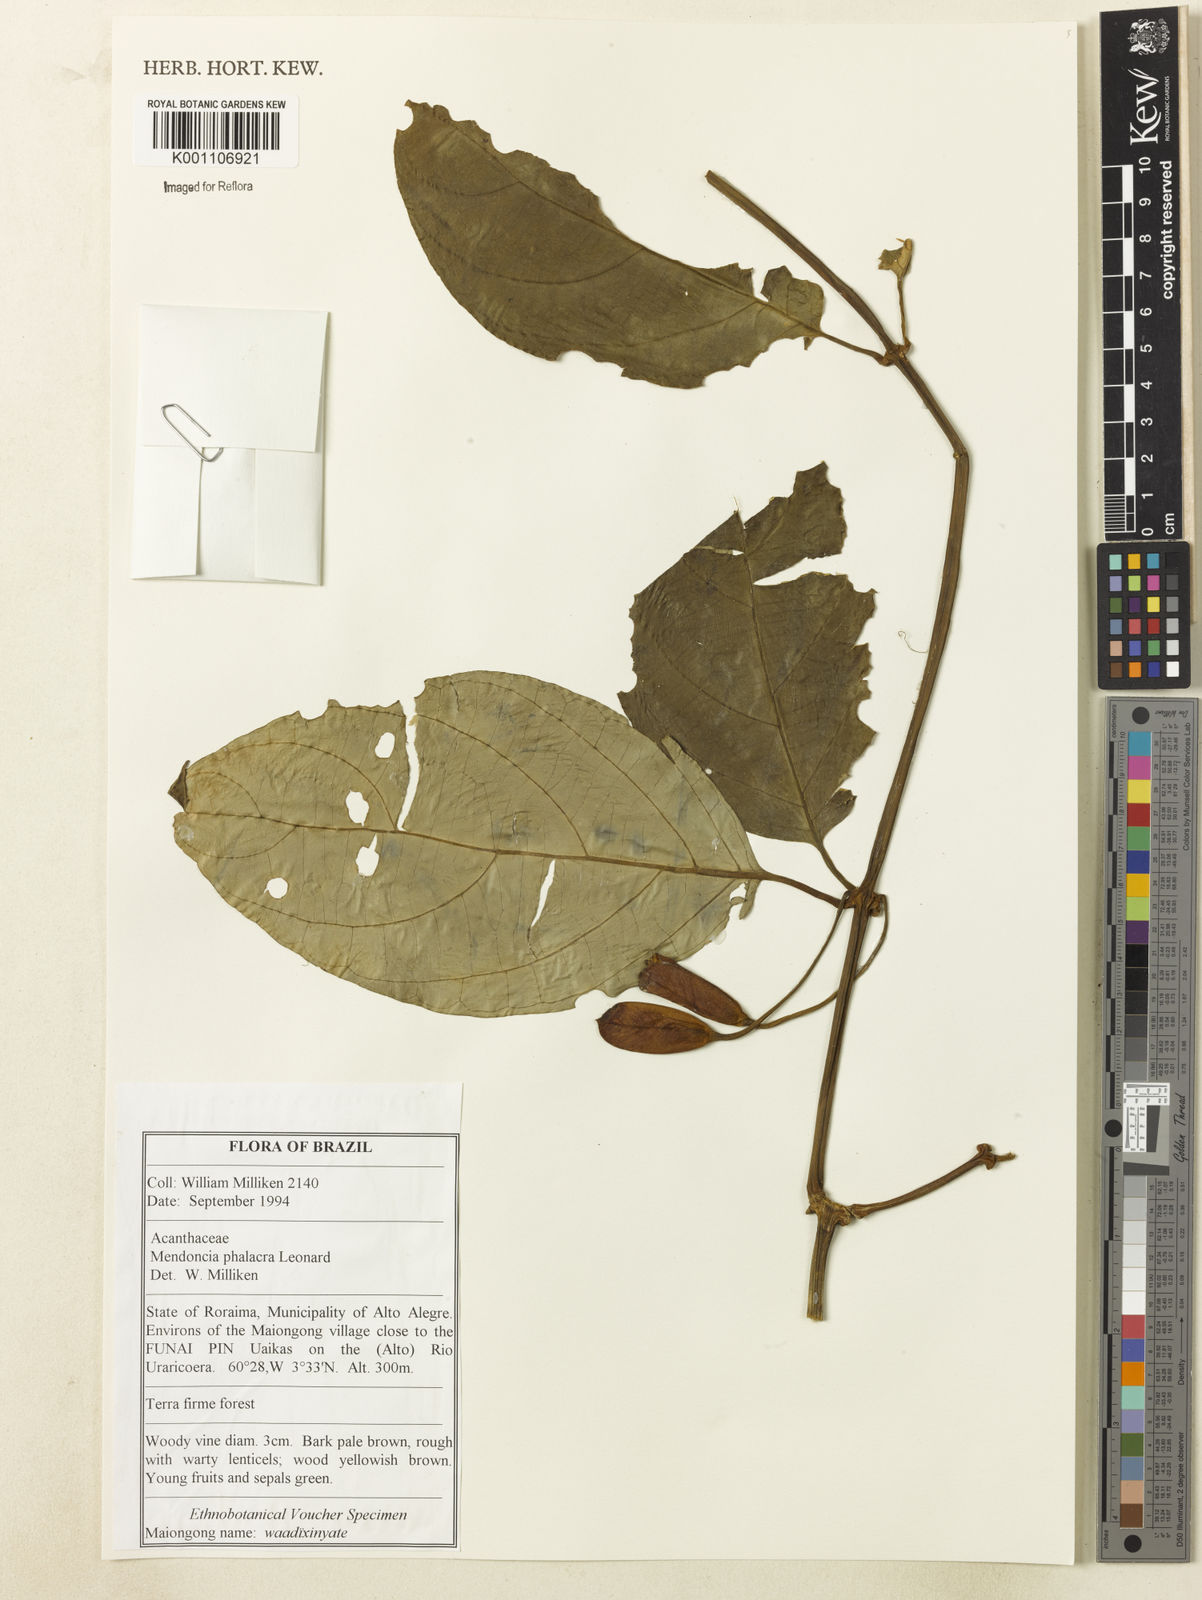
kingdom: Plantae
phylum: Tracheophyta
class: Magnoliopsida
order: Lamiales
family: Acanthaceae
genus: Mendoncia
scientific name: Mendoncia pedunculata
